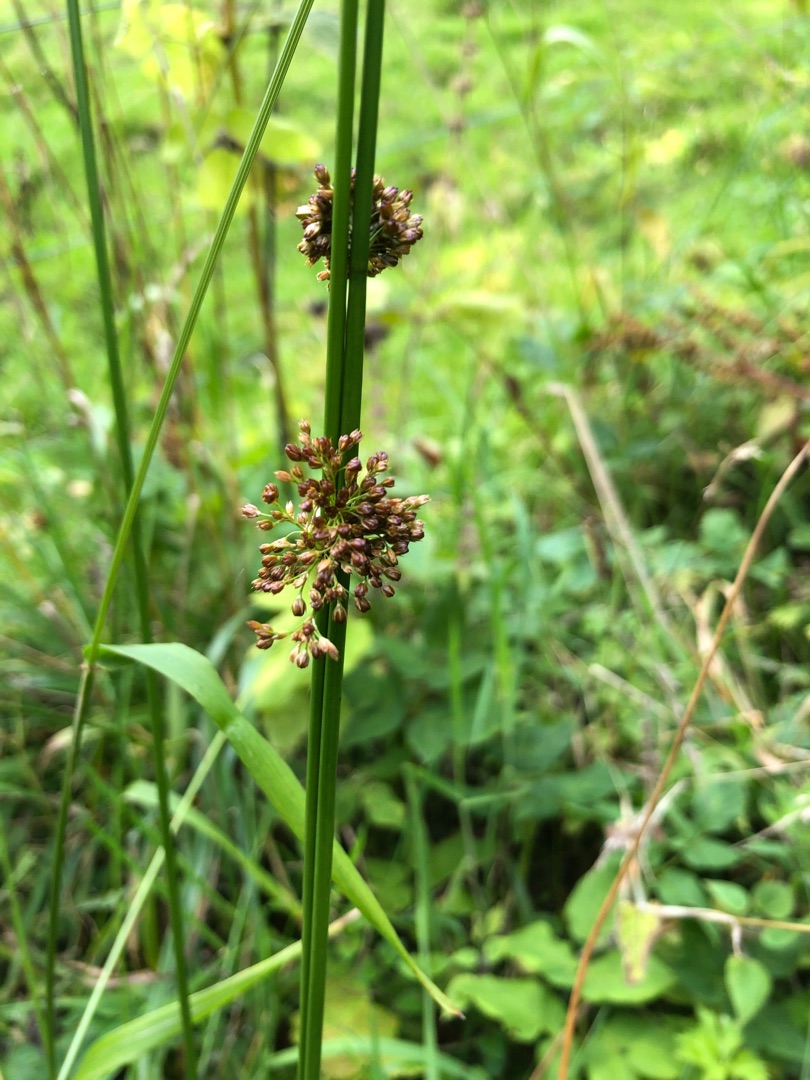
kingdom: Plantae
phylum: Tracheophyta
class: Liliopsida
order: Poales
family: Juncaceae
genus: Juncus
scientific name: Juncus effusus
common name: Lyse-siv
